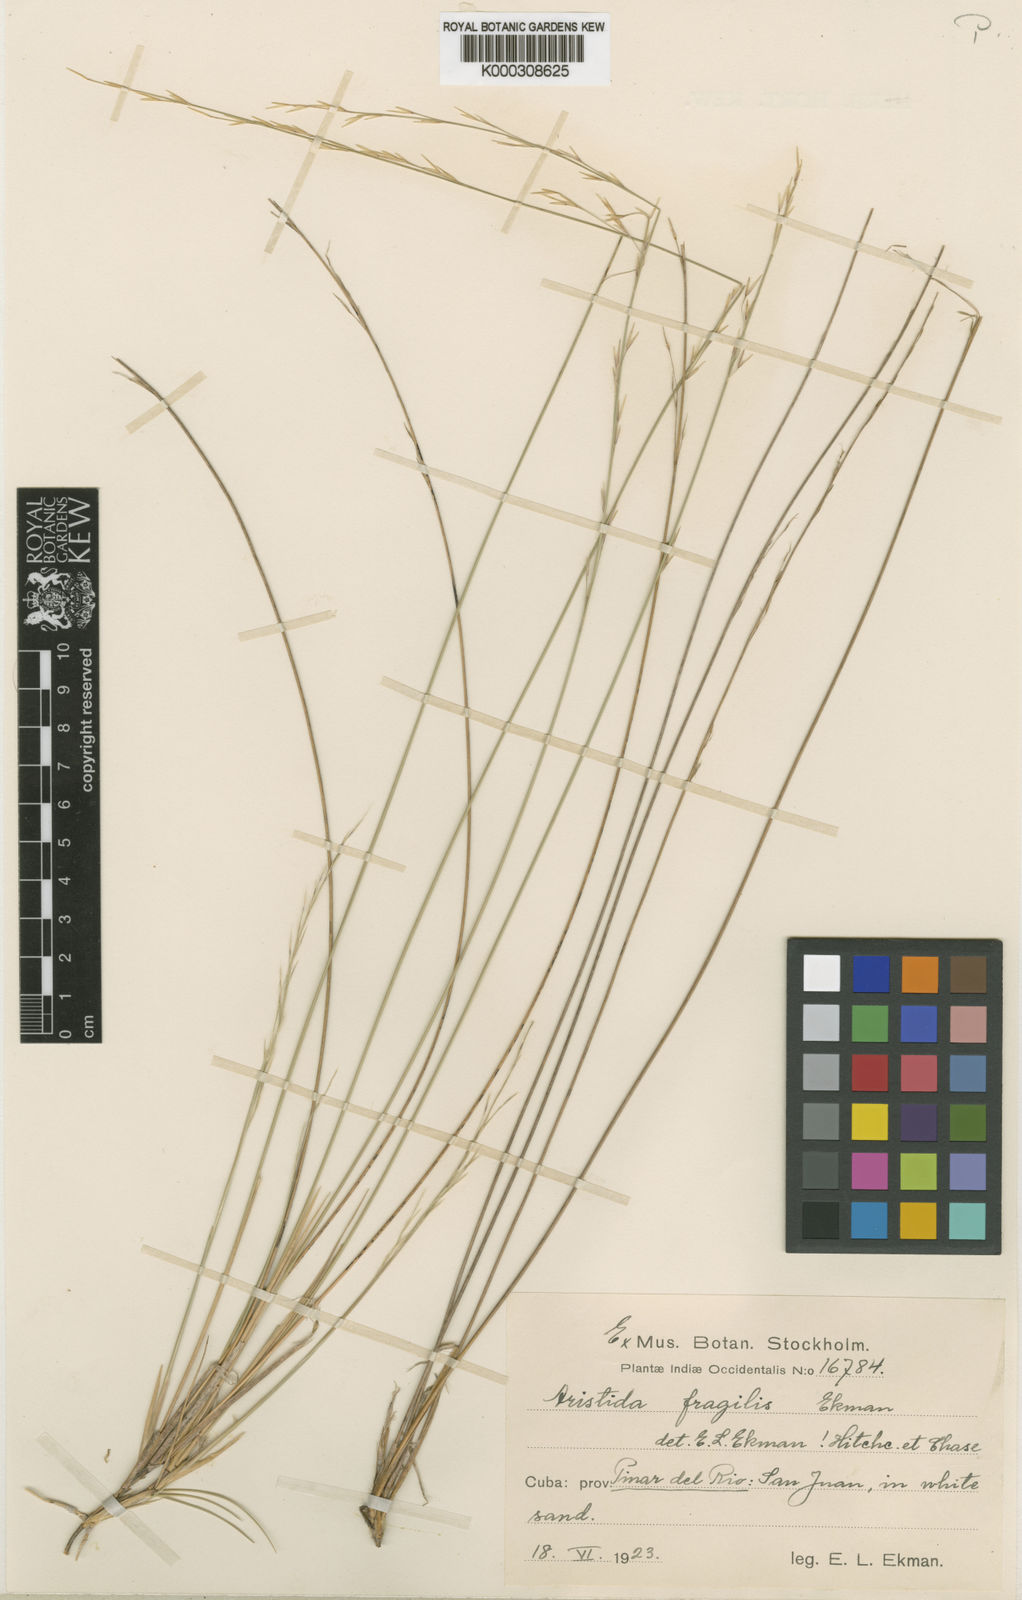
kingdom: Plantae
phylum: Tracheophyta
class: Liliopsida
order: Poales
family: Poaceae
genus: Aristida
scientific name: Aristida fragilis
